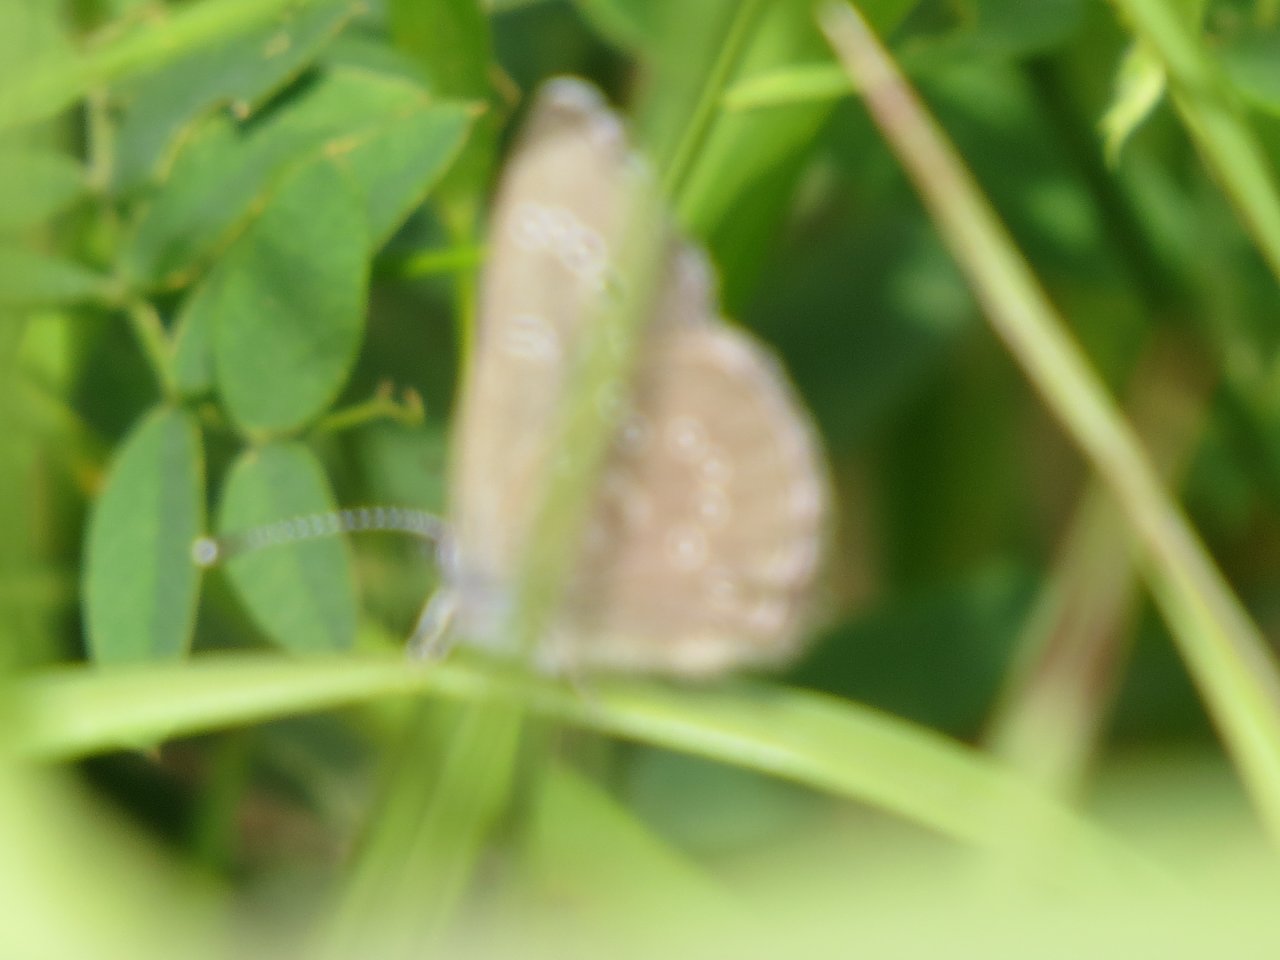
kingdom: Animalia
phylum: Arthropoda
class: Insecta
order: Lepidoptera
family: Lycaenidae
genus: Glaucopsyche
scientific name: Glaucopsyche lygdamus
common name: Silvery Blue
